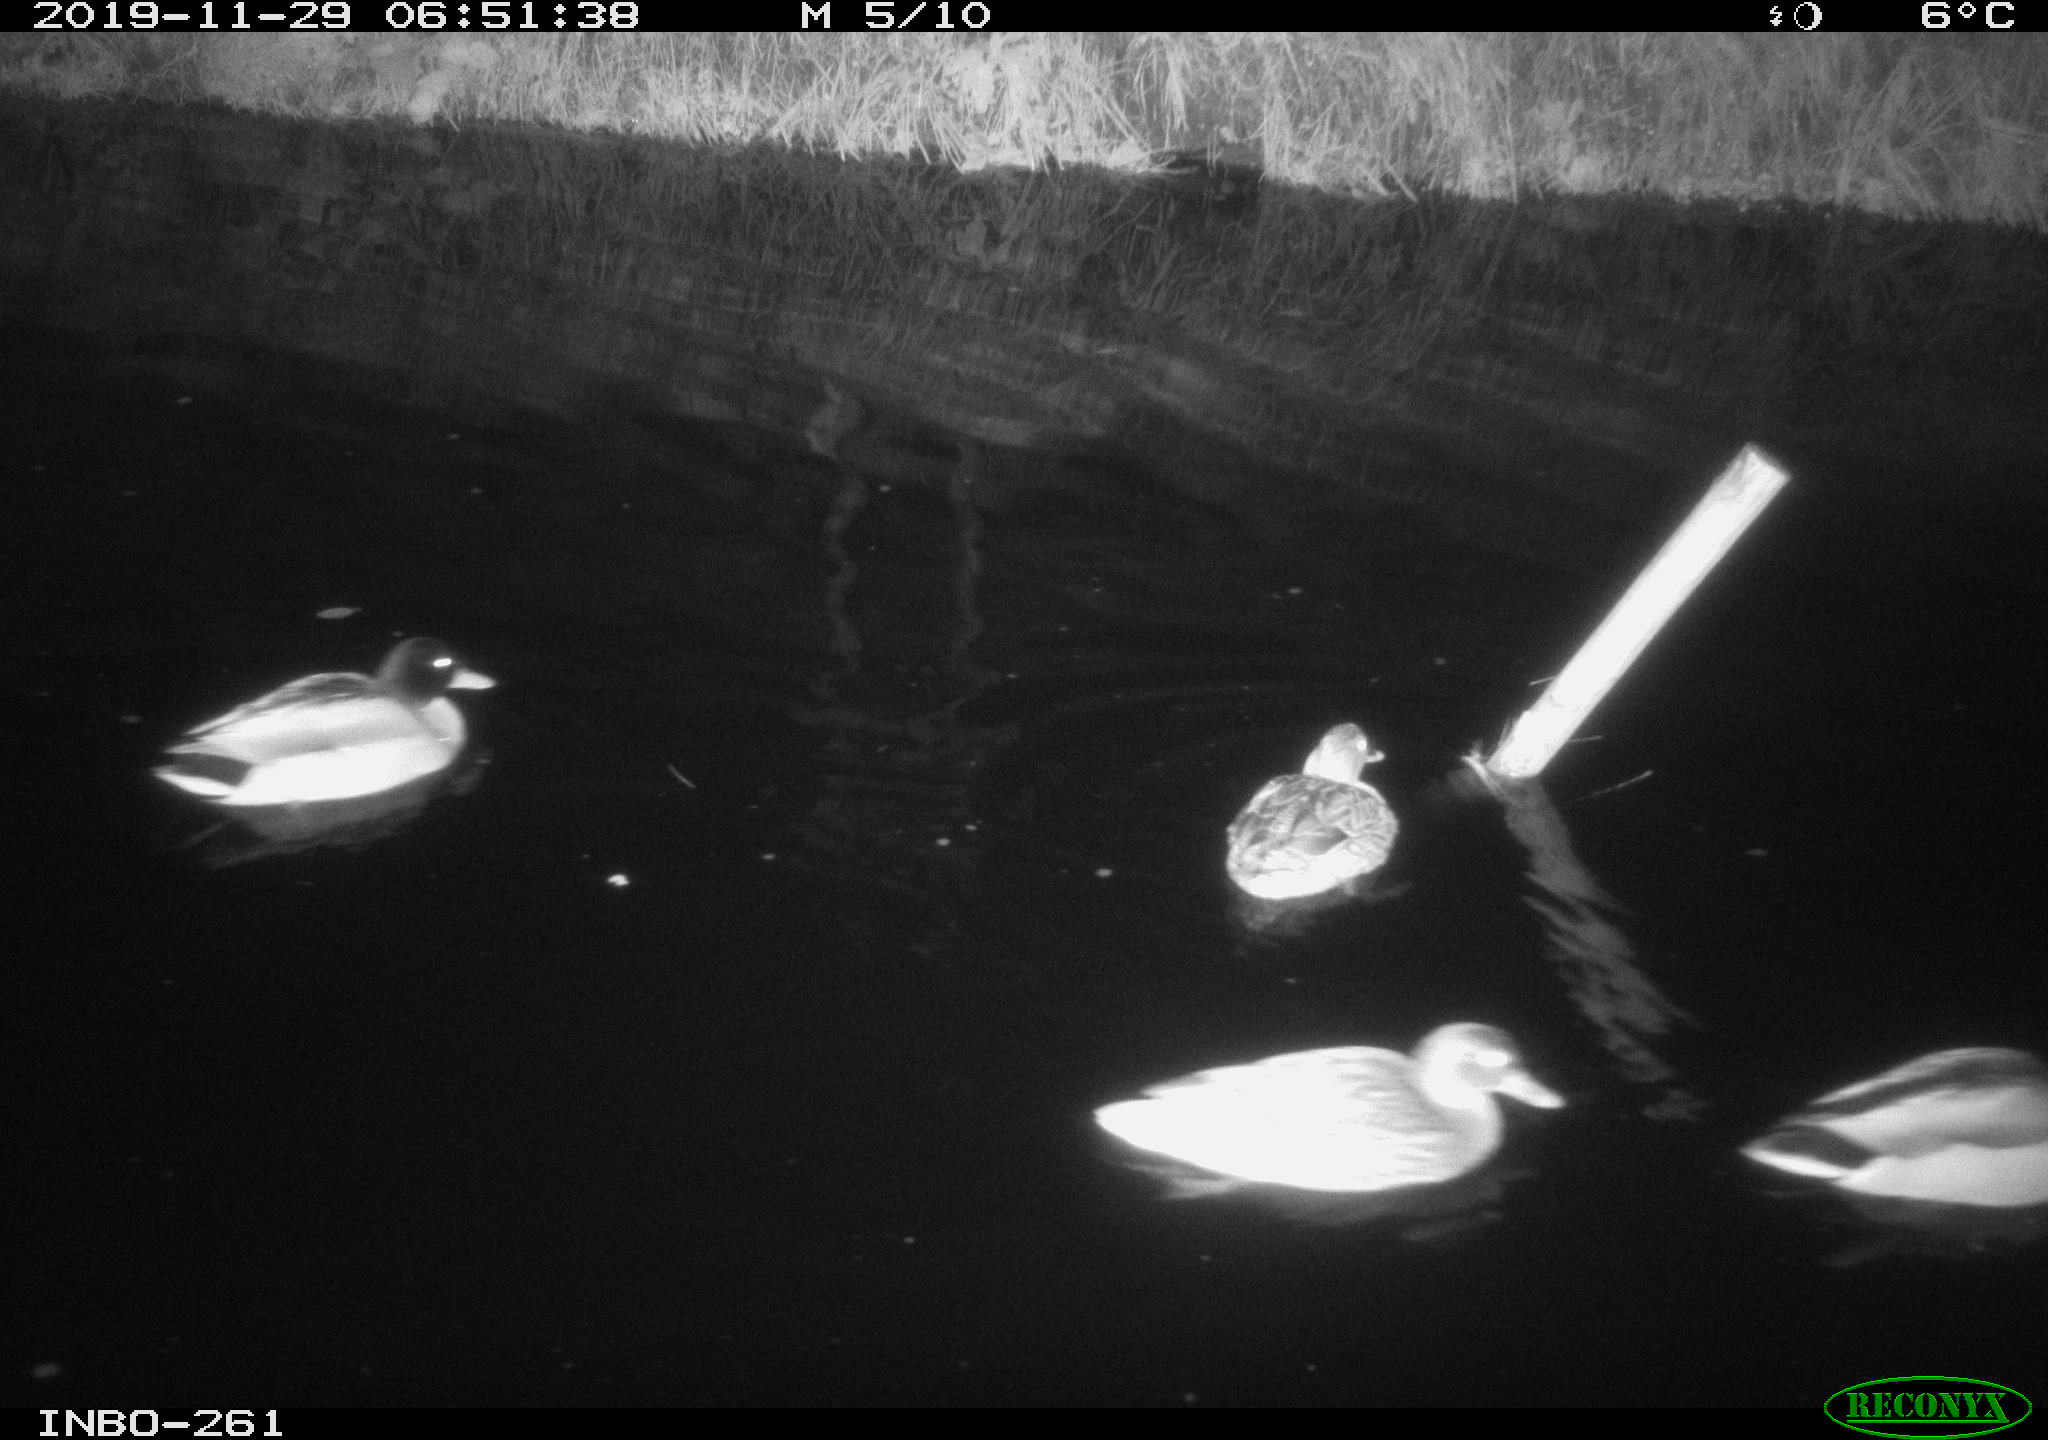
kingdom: Animalia
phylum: Chordata
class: Aves
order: Anseriformes
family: Anatidae
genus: Anas
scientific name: Anas platyrhynchos
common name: Mallard
